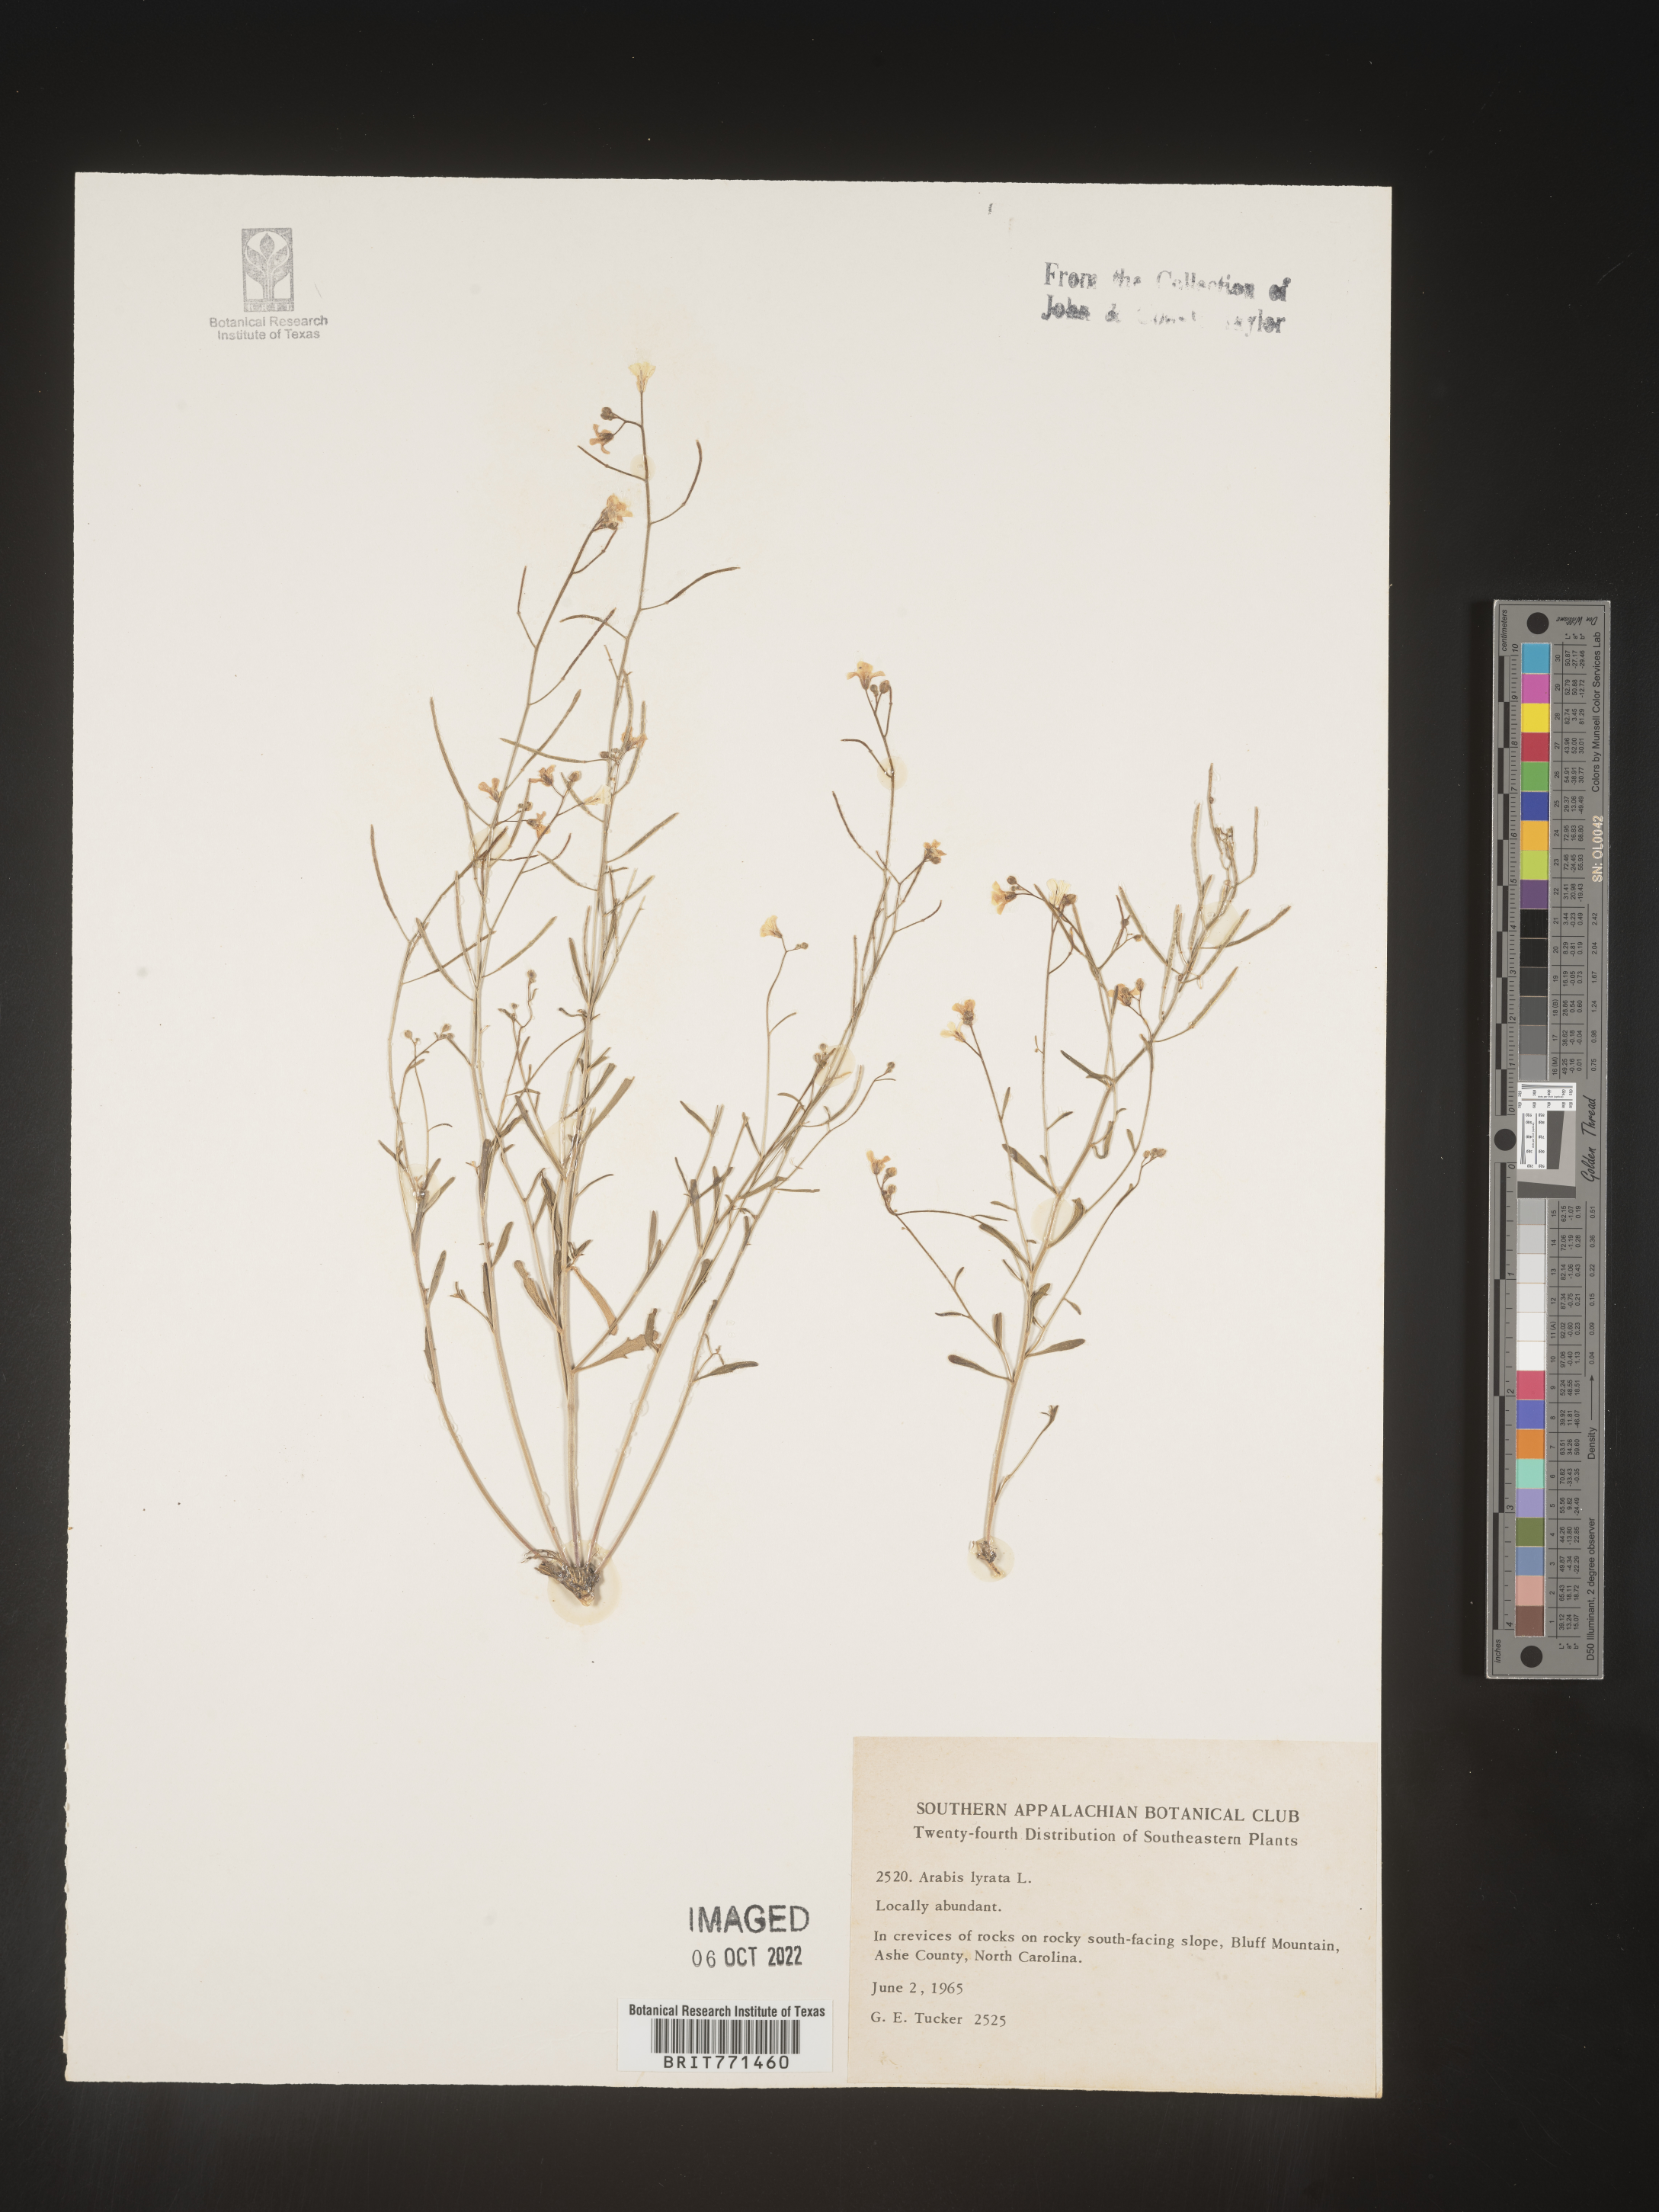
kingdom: Plantae
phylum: Tracheophyta
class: Magnoliopsida
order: Brassicales
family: Brassicaceae
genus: Arabidopsis
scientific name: Arabidopsis lyrata
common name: Lyrate rockcress
